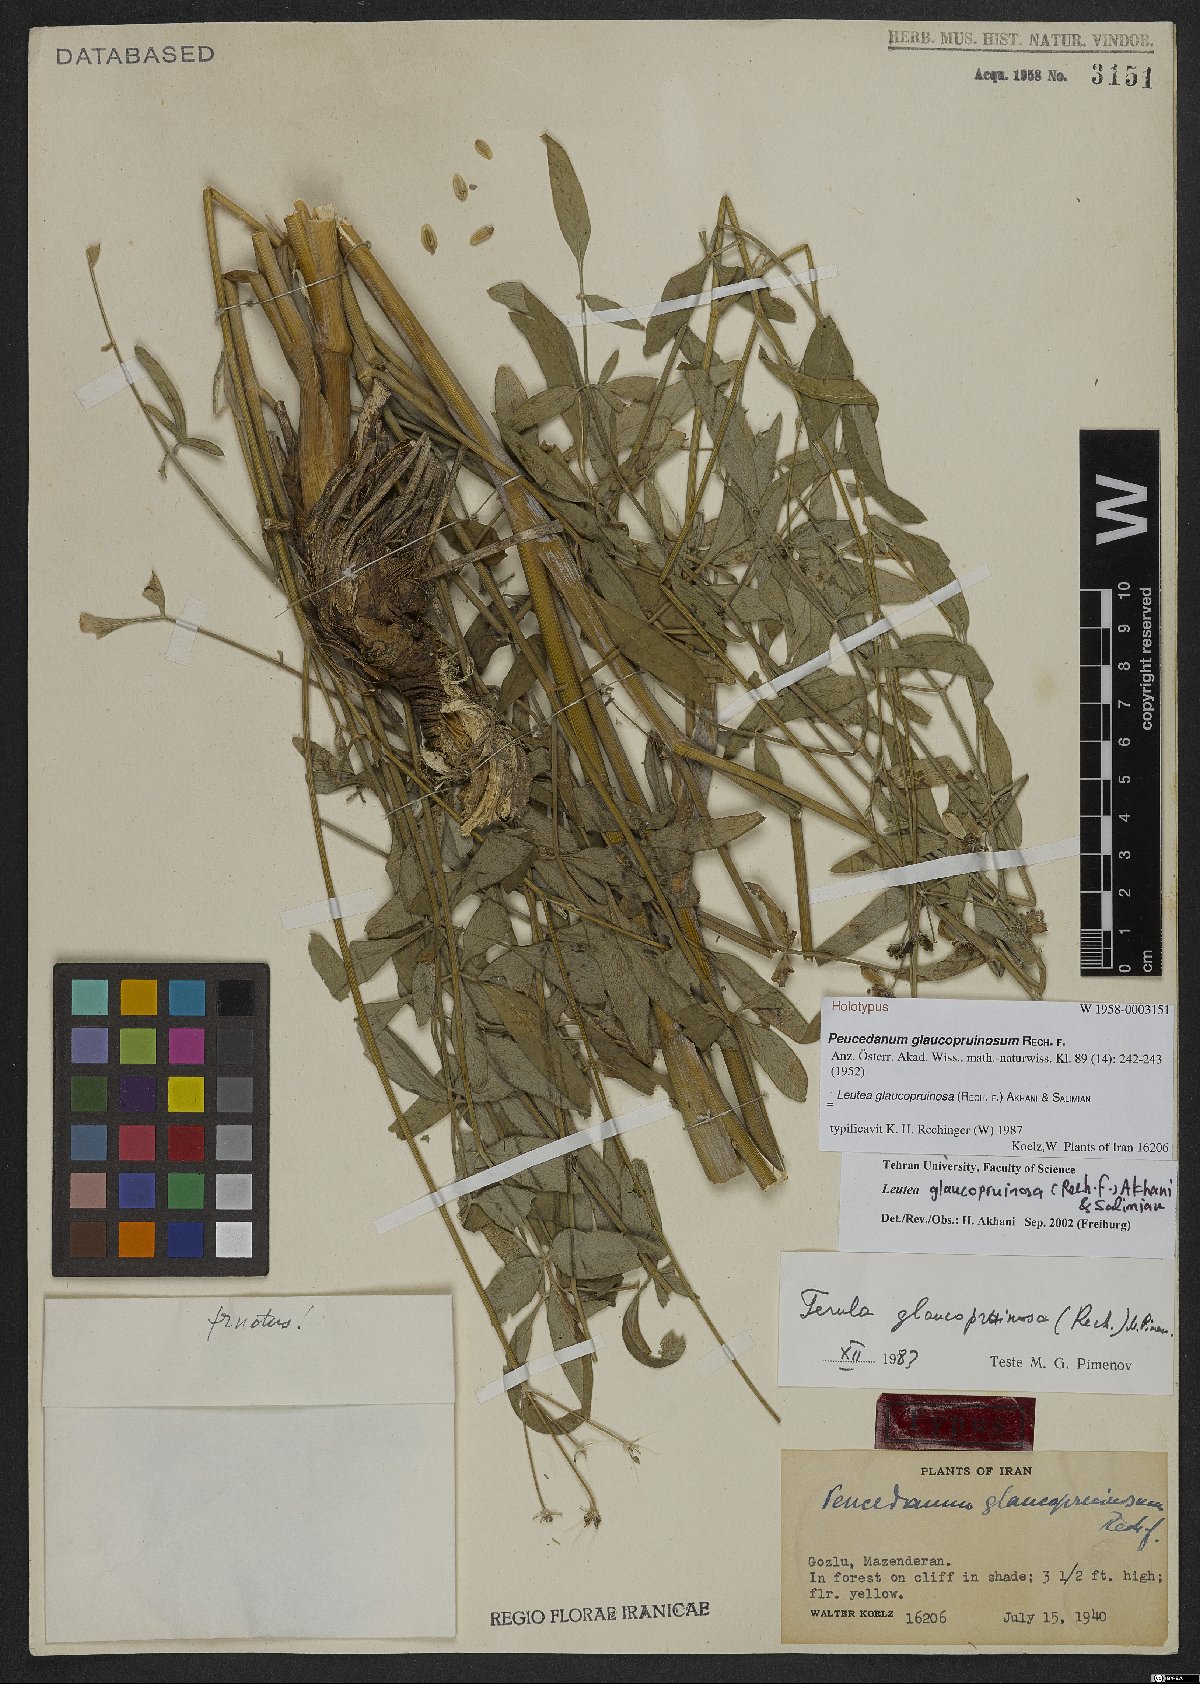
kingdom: Plantae
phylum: Tracheophyta
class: Magnoliopsida
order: Apiales
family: Apiaceae
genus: Ferula
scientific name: Ferula glaucopruinosa
